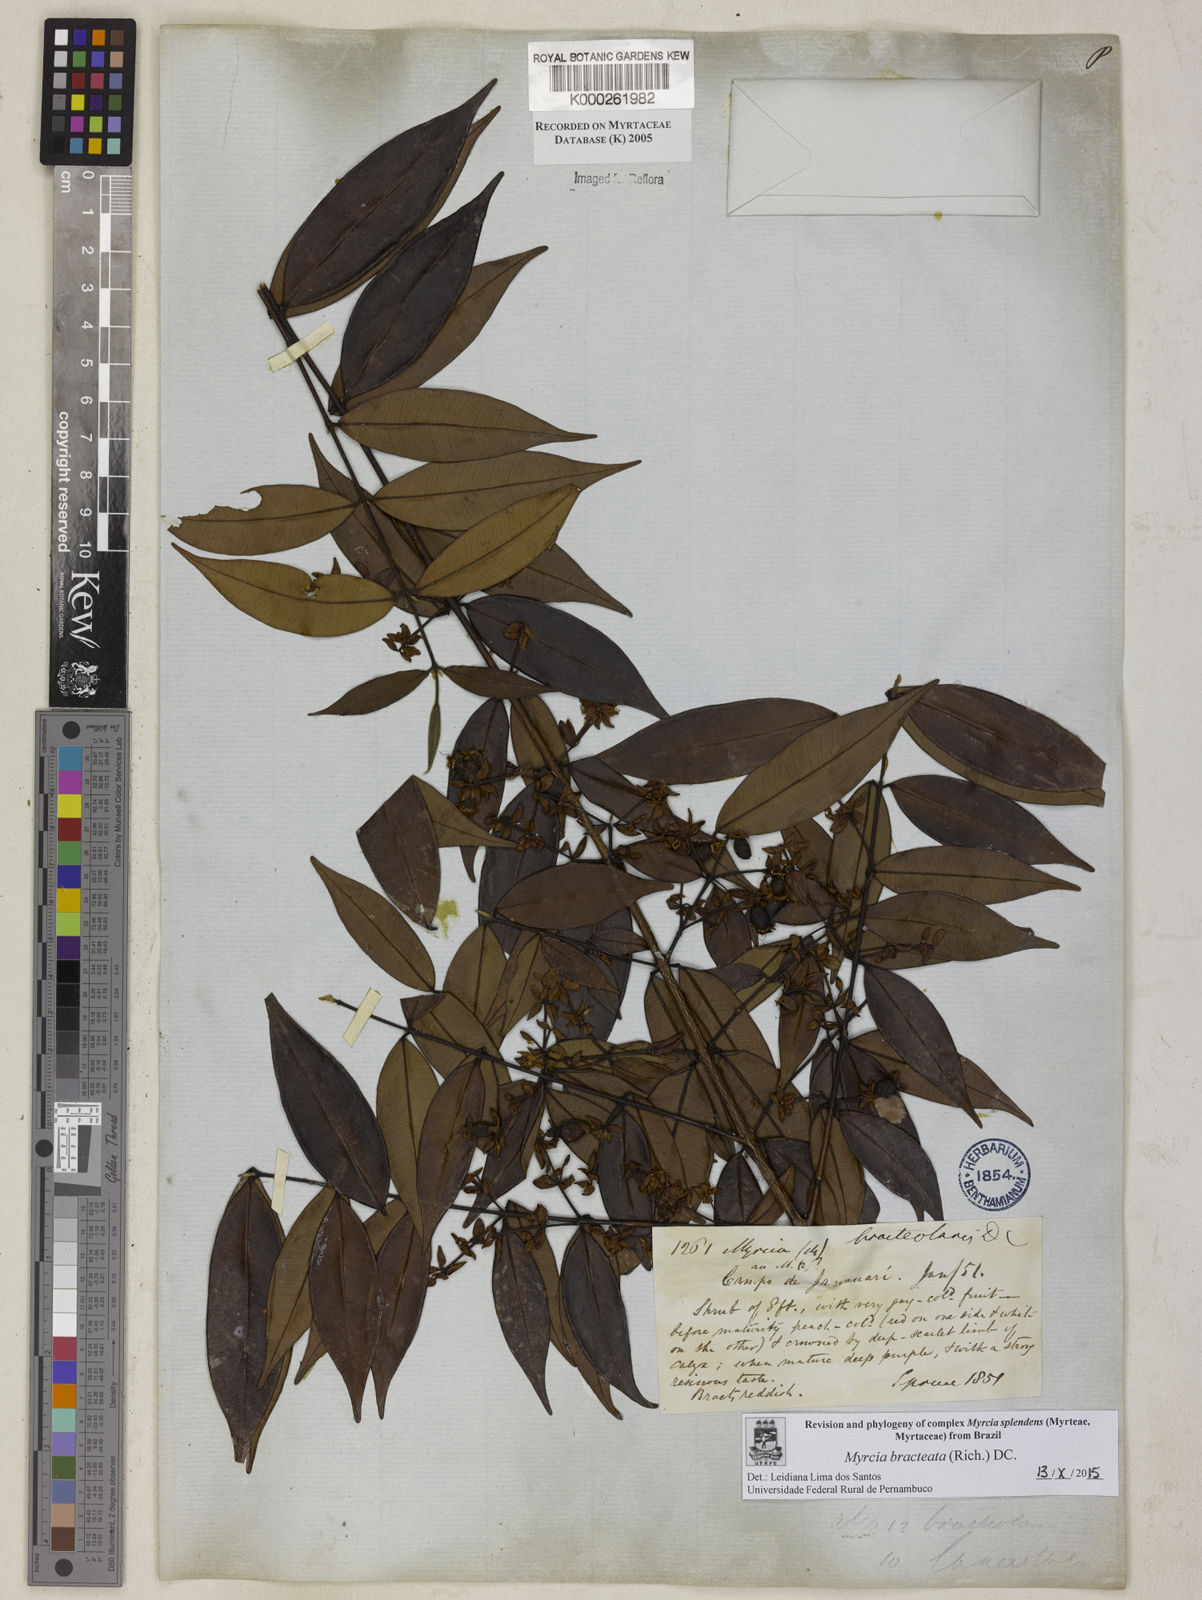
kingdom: Plantae
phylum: Tracheophyta
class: Magnoliopsida
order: Myrtales
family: Myrtaceae
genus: Myrcia
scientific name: Myrcia bracteata
